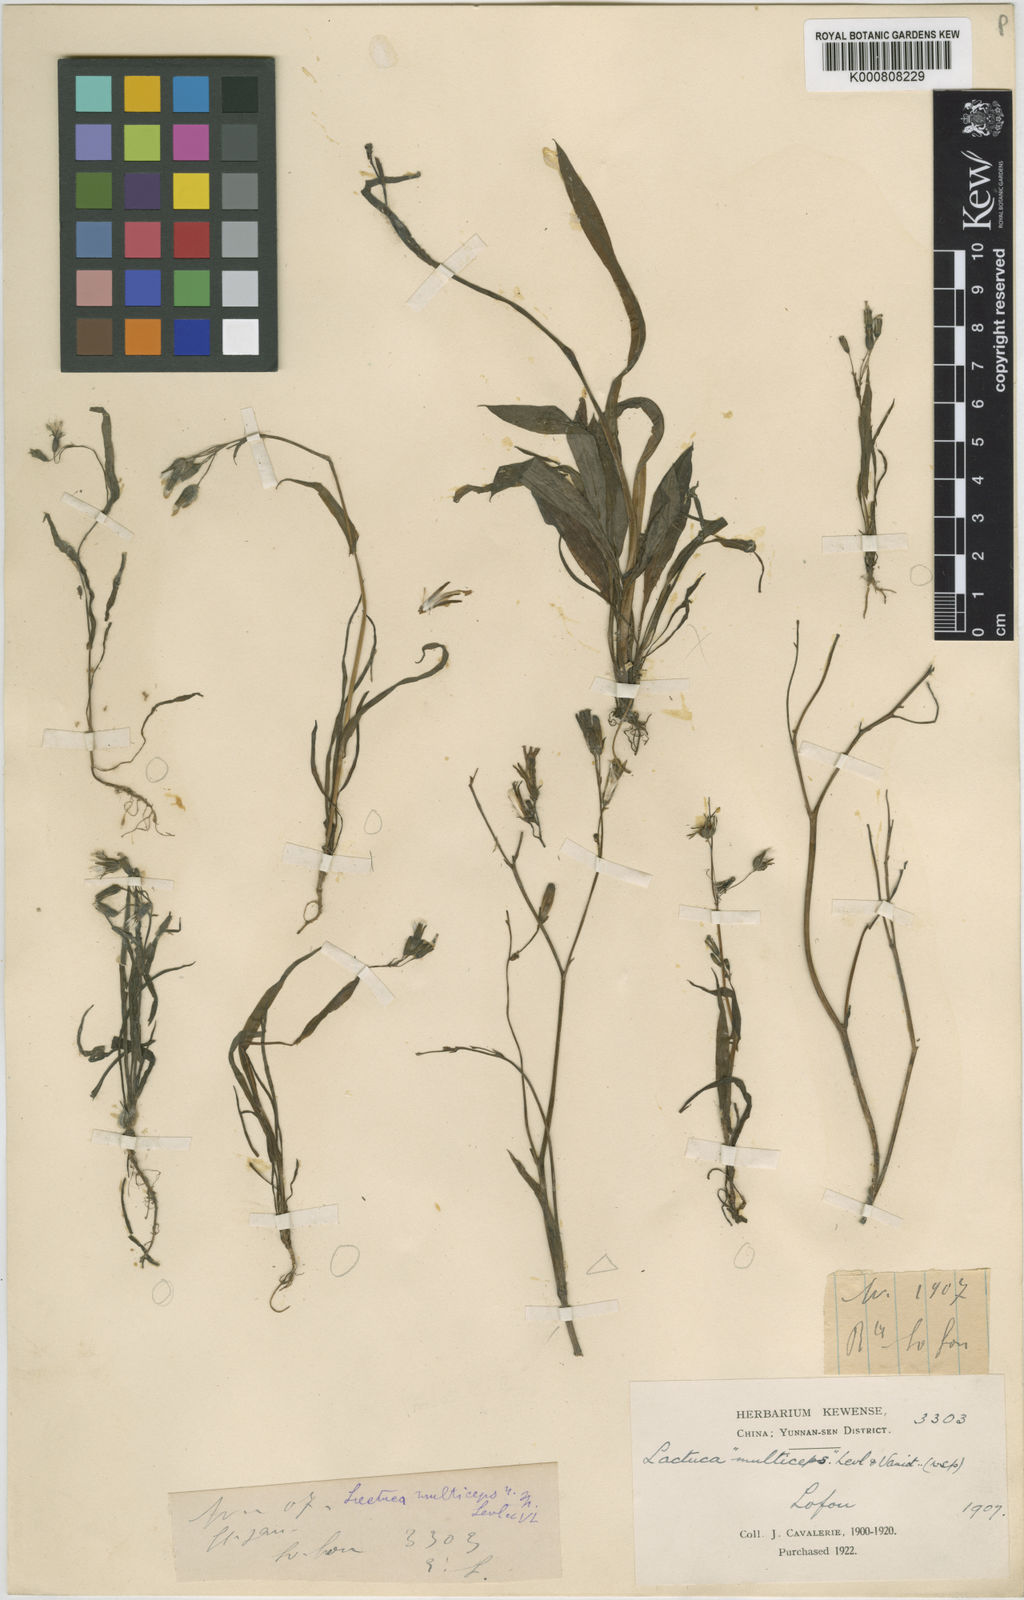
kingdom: Plantae
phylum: Tracheophyta
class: Magnoliopsida
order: Asterales
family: Asteraceae
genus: Ixeris
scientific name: Ixeris japonica
